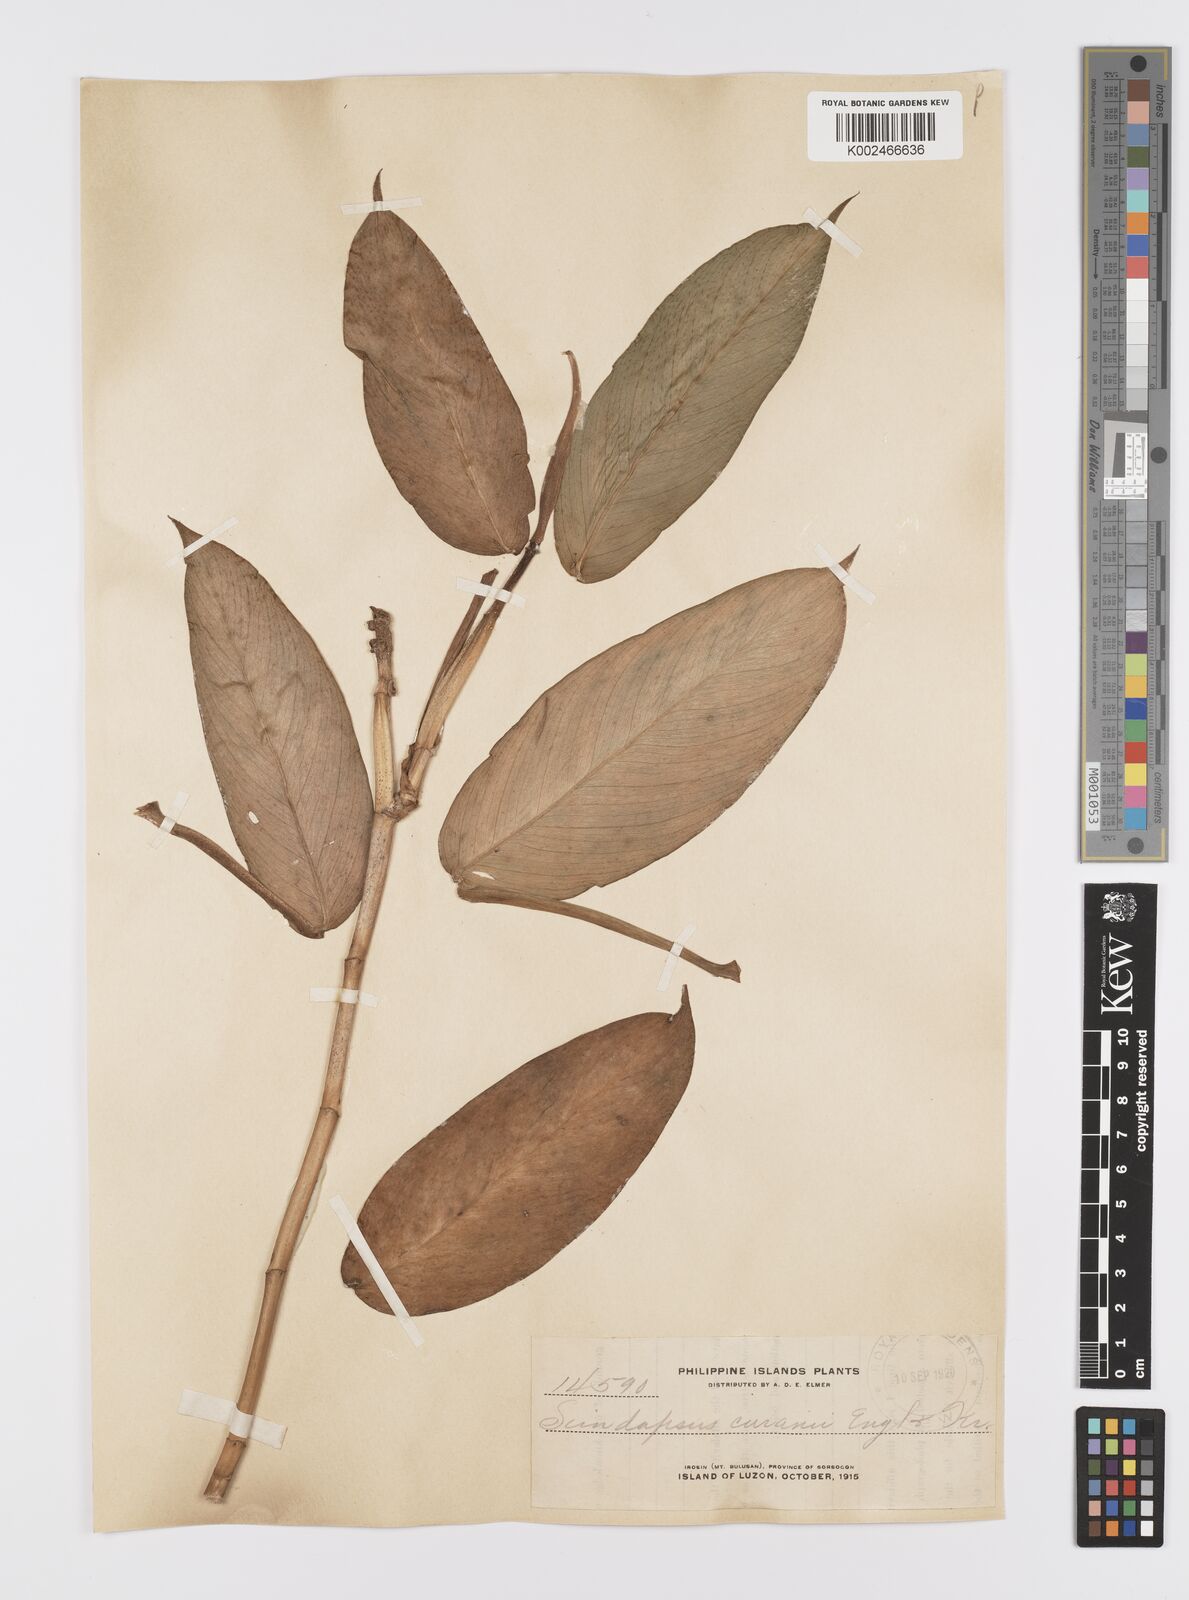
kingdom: Plantae
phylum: Tracheophyta
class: Liliopsida
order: Alismatales
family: Araceae
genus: Scindapsus
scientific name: Scindapsus curranii
